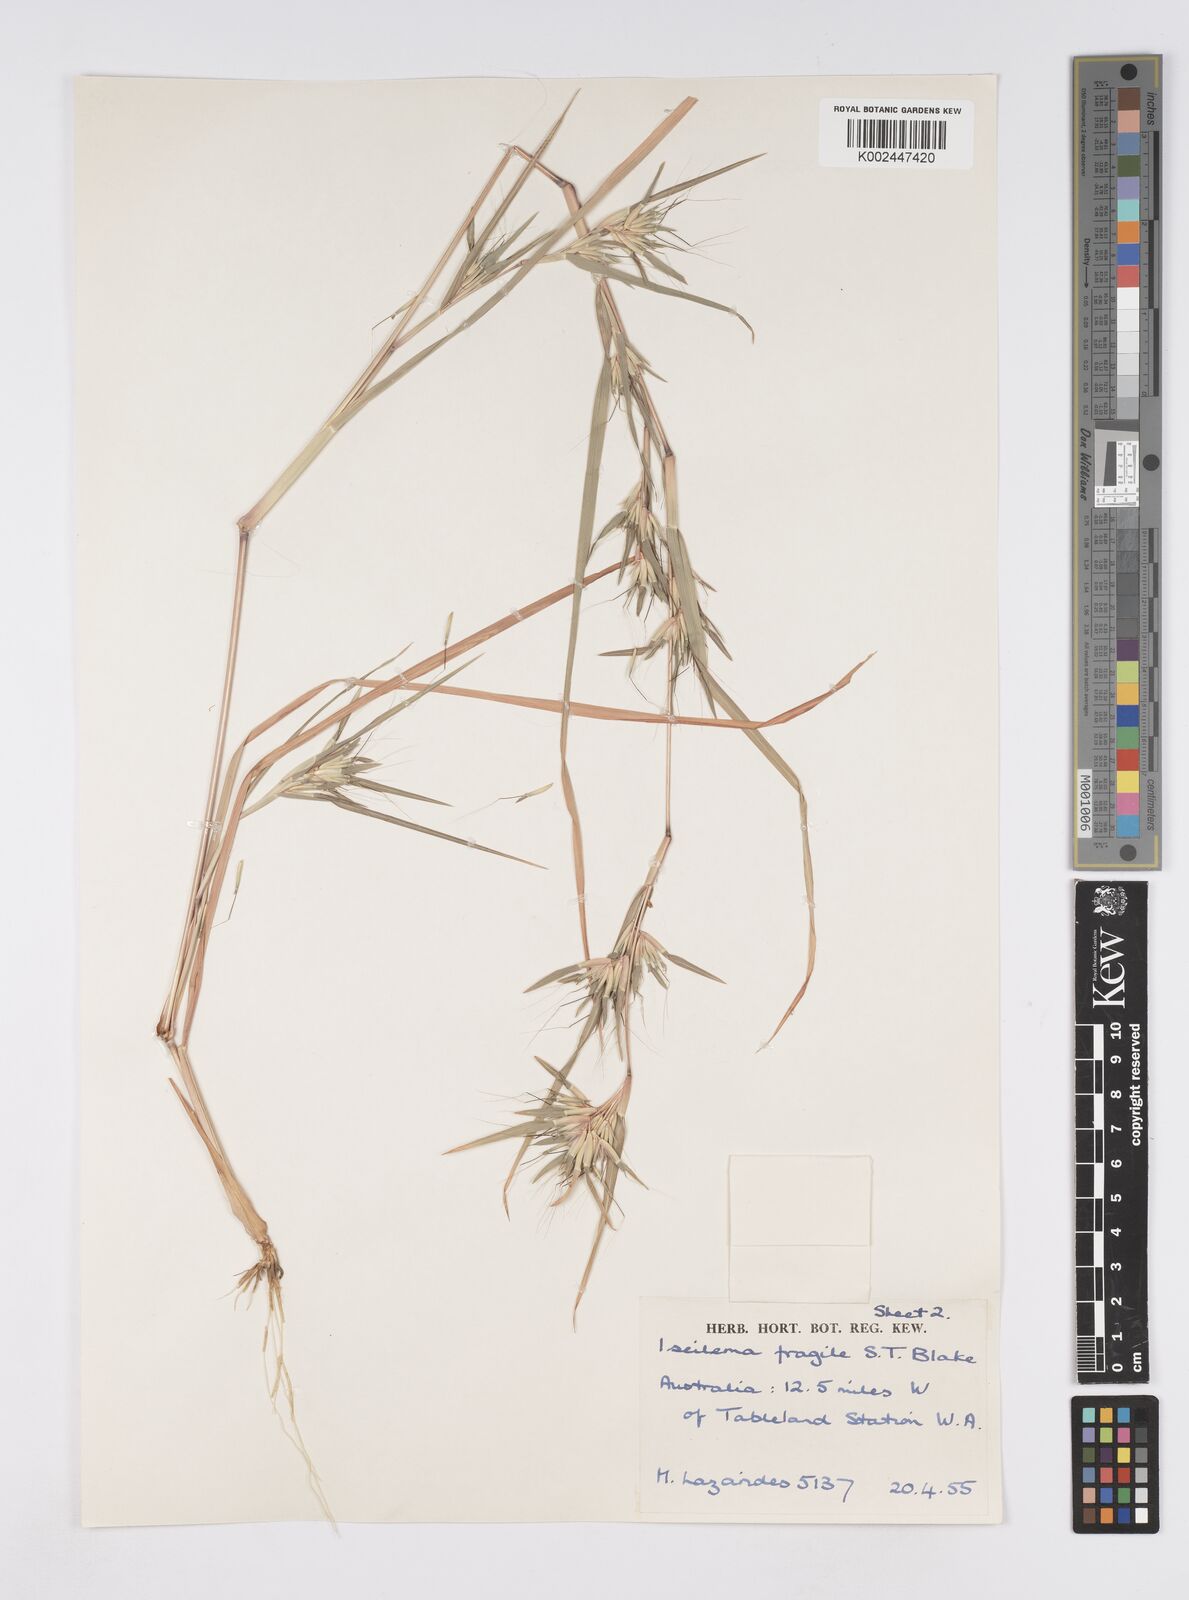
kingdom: Plantae
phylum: Tracheophyta
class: Liliopsida
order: Poales
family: Poaceae
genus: Iseilema
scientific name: Iseilema fragile
